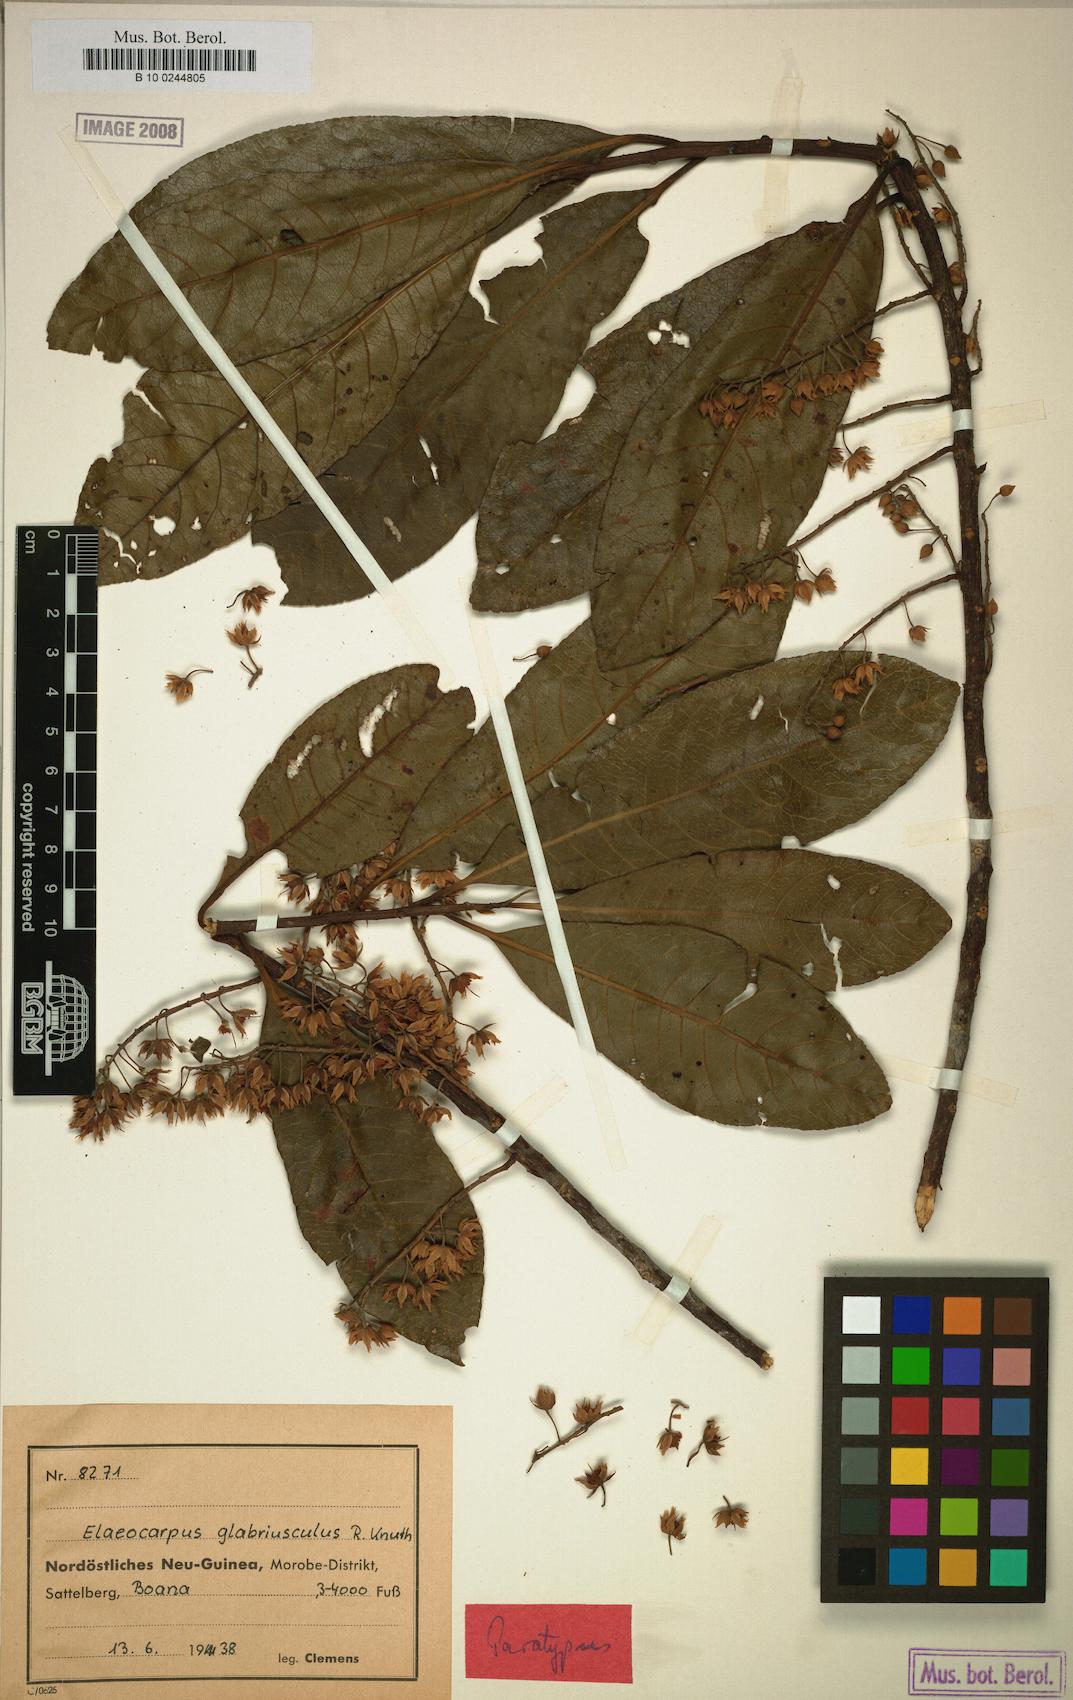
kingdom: Plantae
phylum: Tracheophyta
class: Magnoliopsida
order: Oxalidales
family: Elaeocarpaceae
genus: Elaeocarpus
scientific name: Elaeocarpus kaniensis
